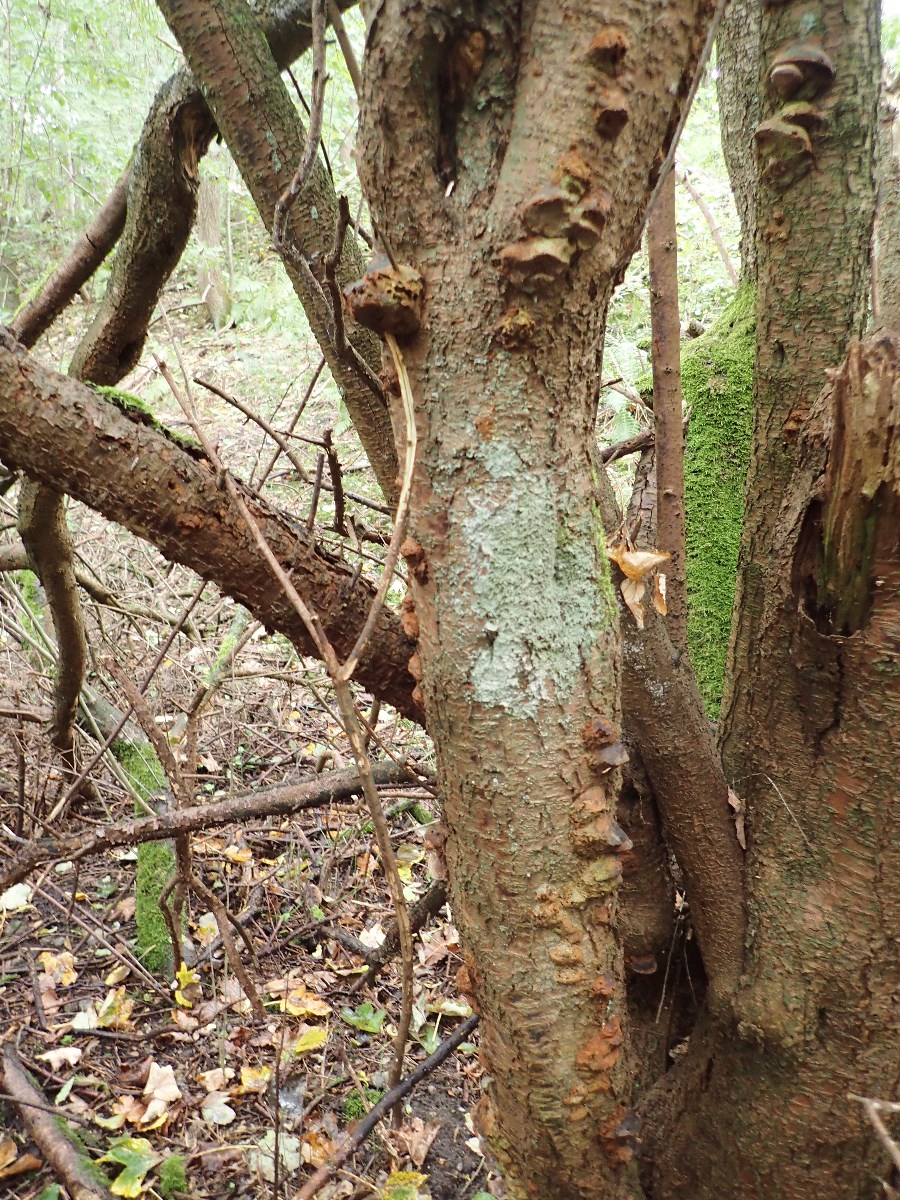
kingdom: Fungi
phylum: Basidiomycota
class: Agaricomycetes
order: Hymenochaetales
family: Hymenochaetaceae
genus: Phellinus
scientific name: Phellinus pomaceus
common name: blomme-ildporesvamp
